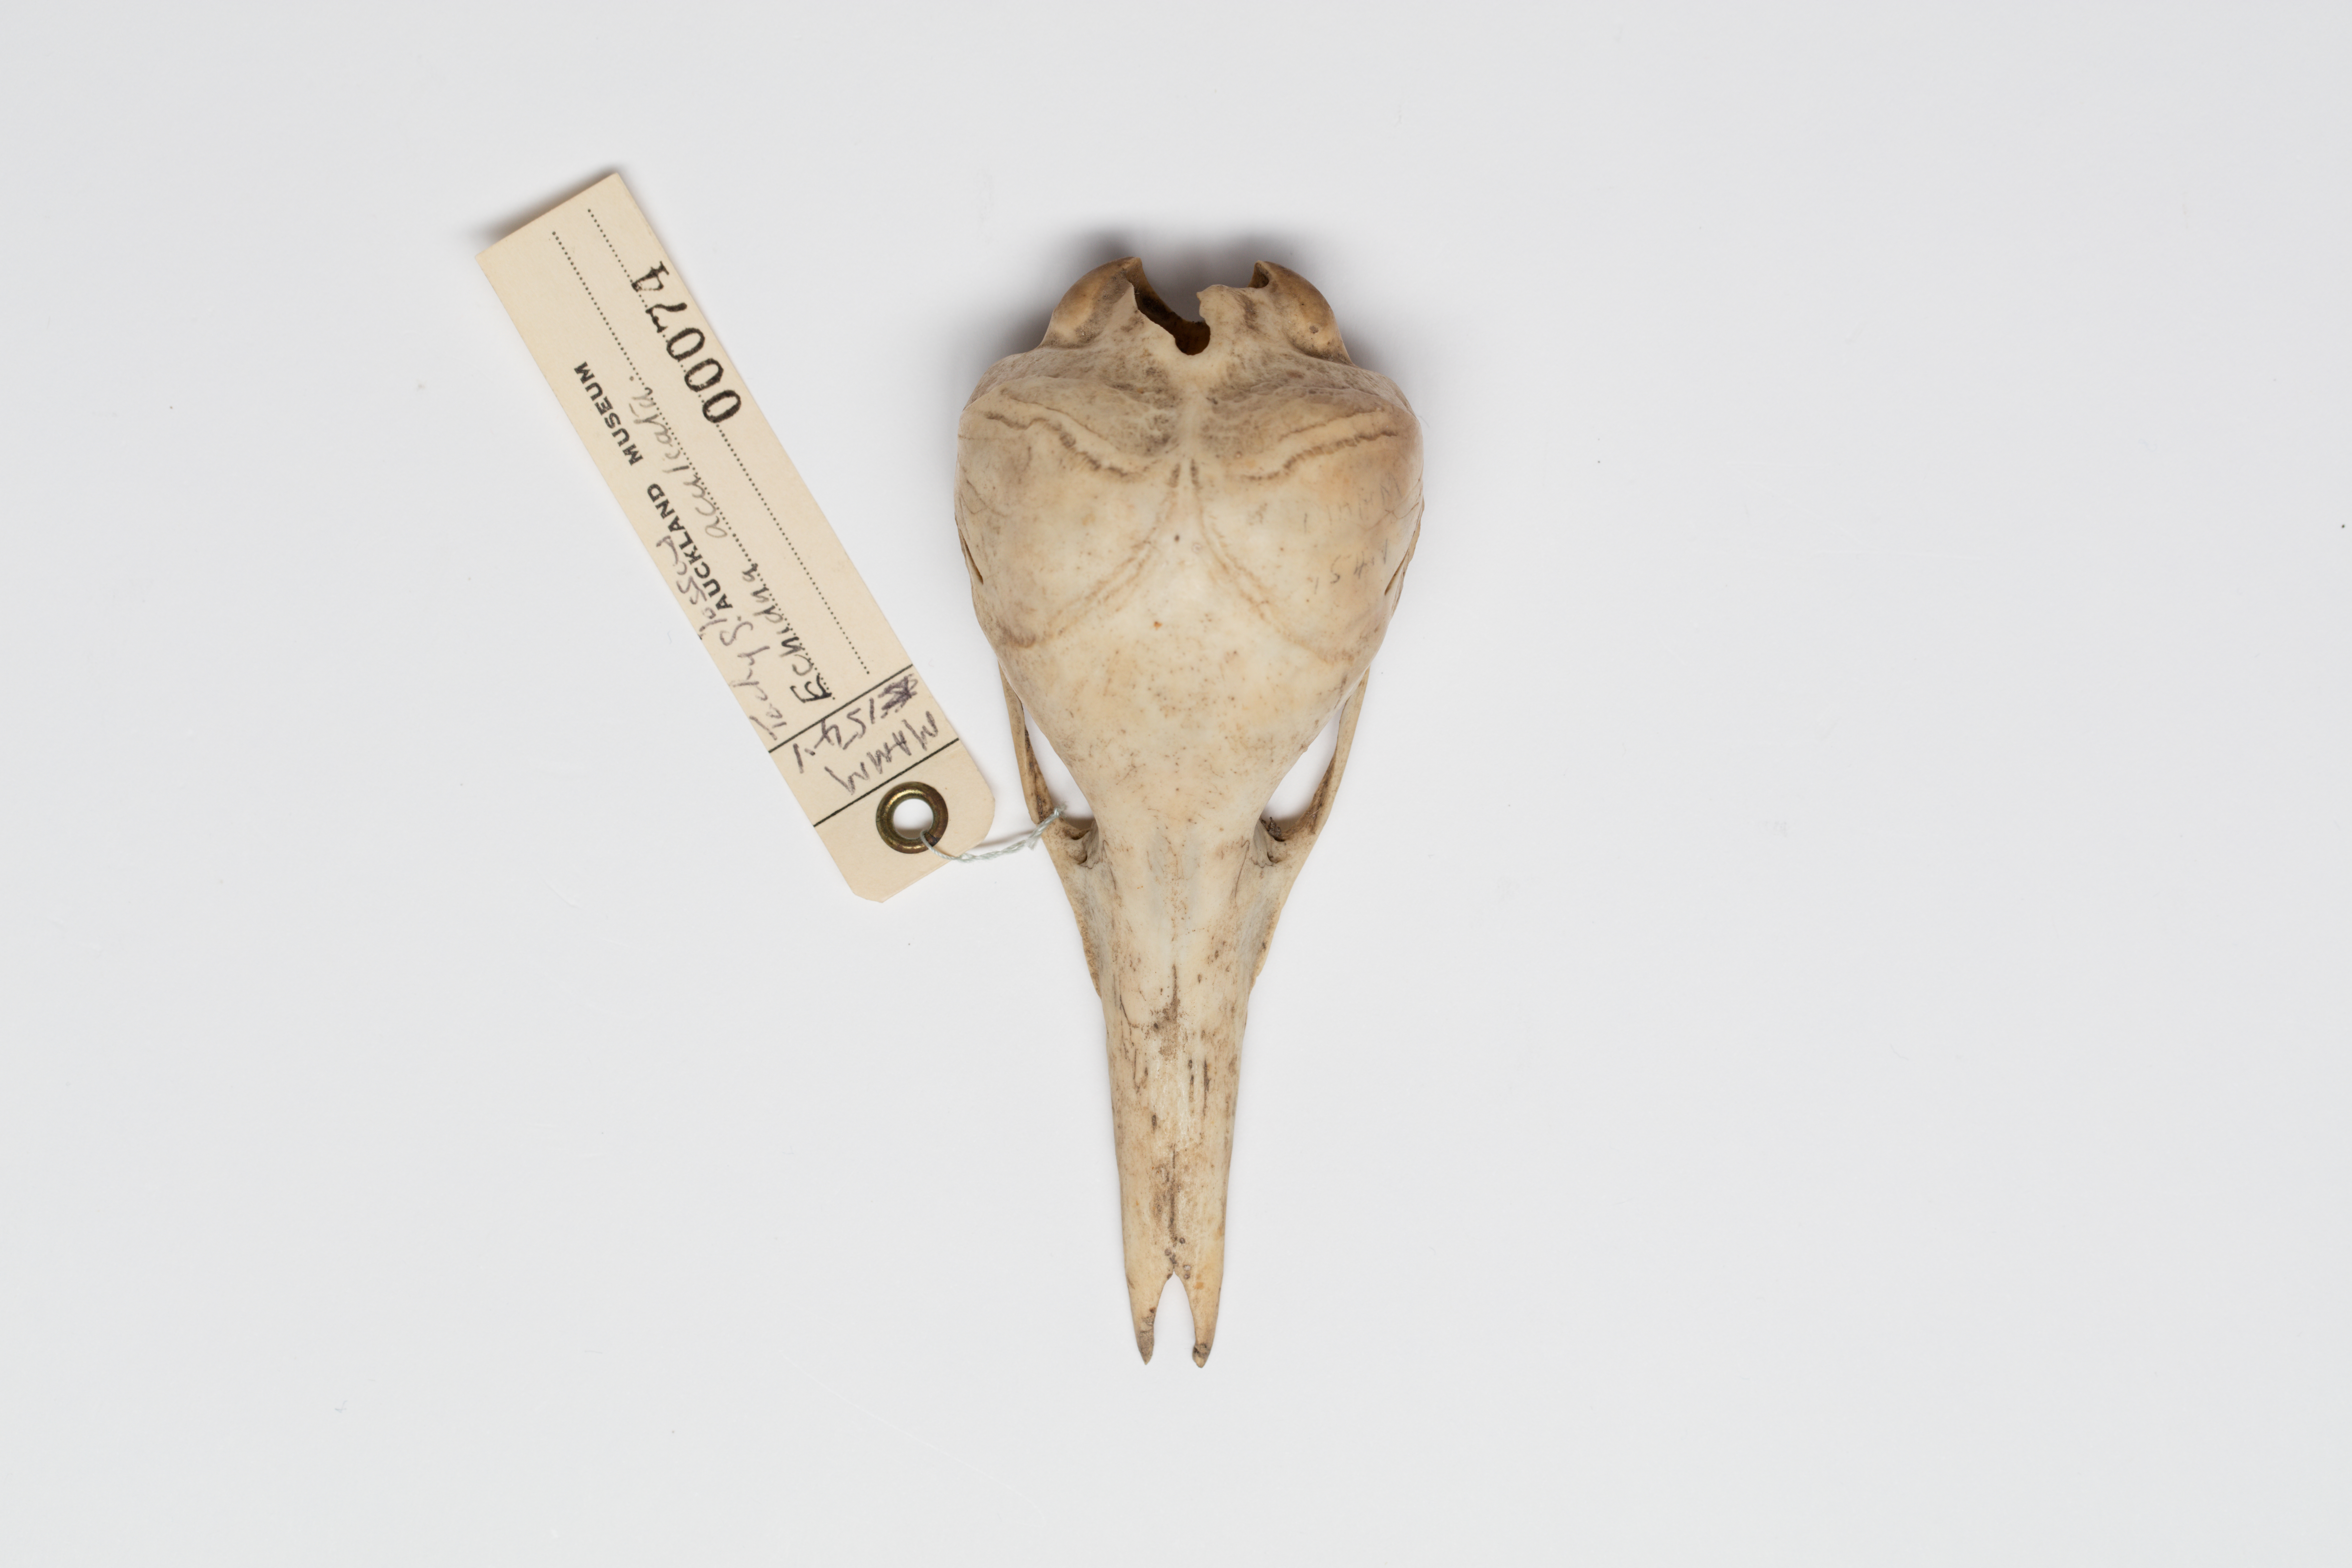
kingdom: Animalia
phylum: Chordata
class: Mammalia
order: Monotremata
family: Tachyglossidae
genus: Tachyglossus
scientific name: Tachyglossus aculeatus
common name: Short-beaked echidna
